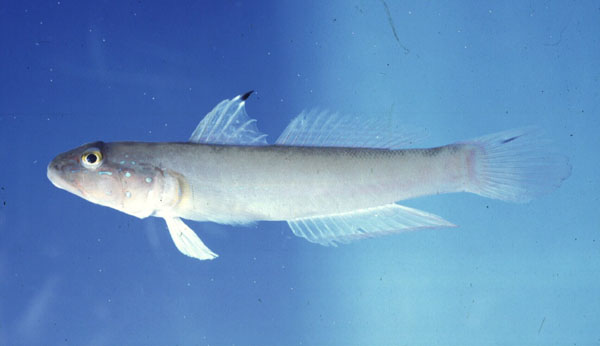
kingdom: Animalia
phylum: Chordata
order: Perciformes
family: Gobiidae
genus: Valenciennea
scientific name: Valenciennea sexguttata
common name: Sixspot goby
